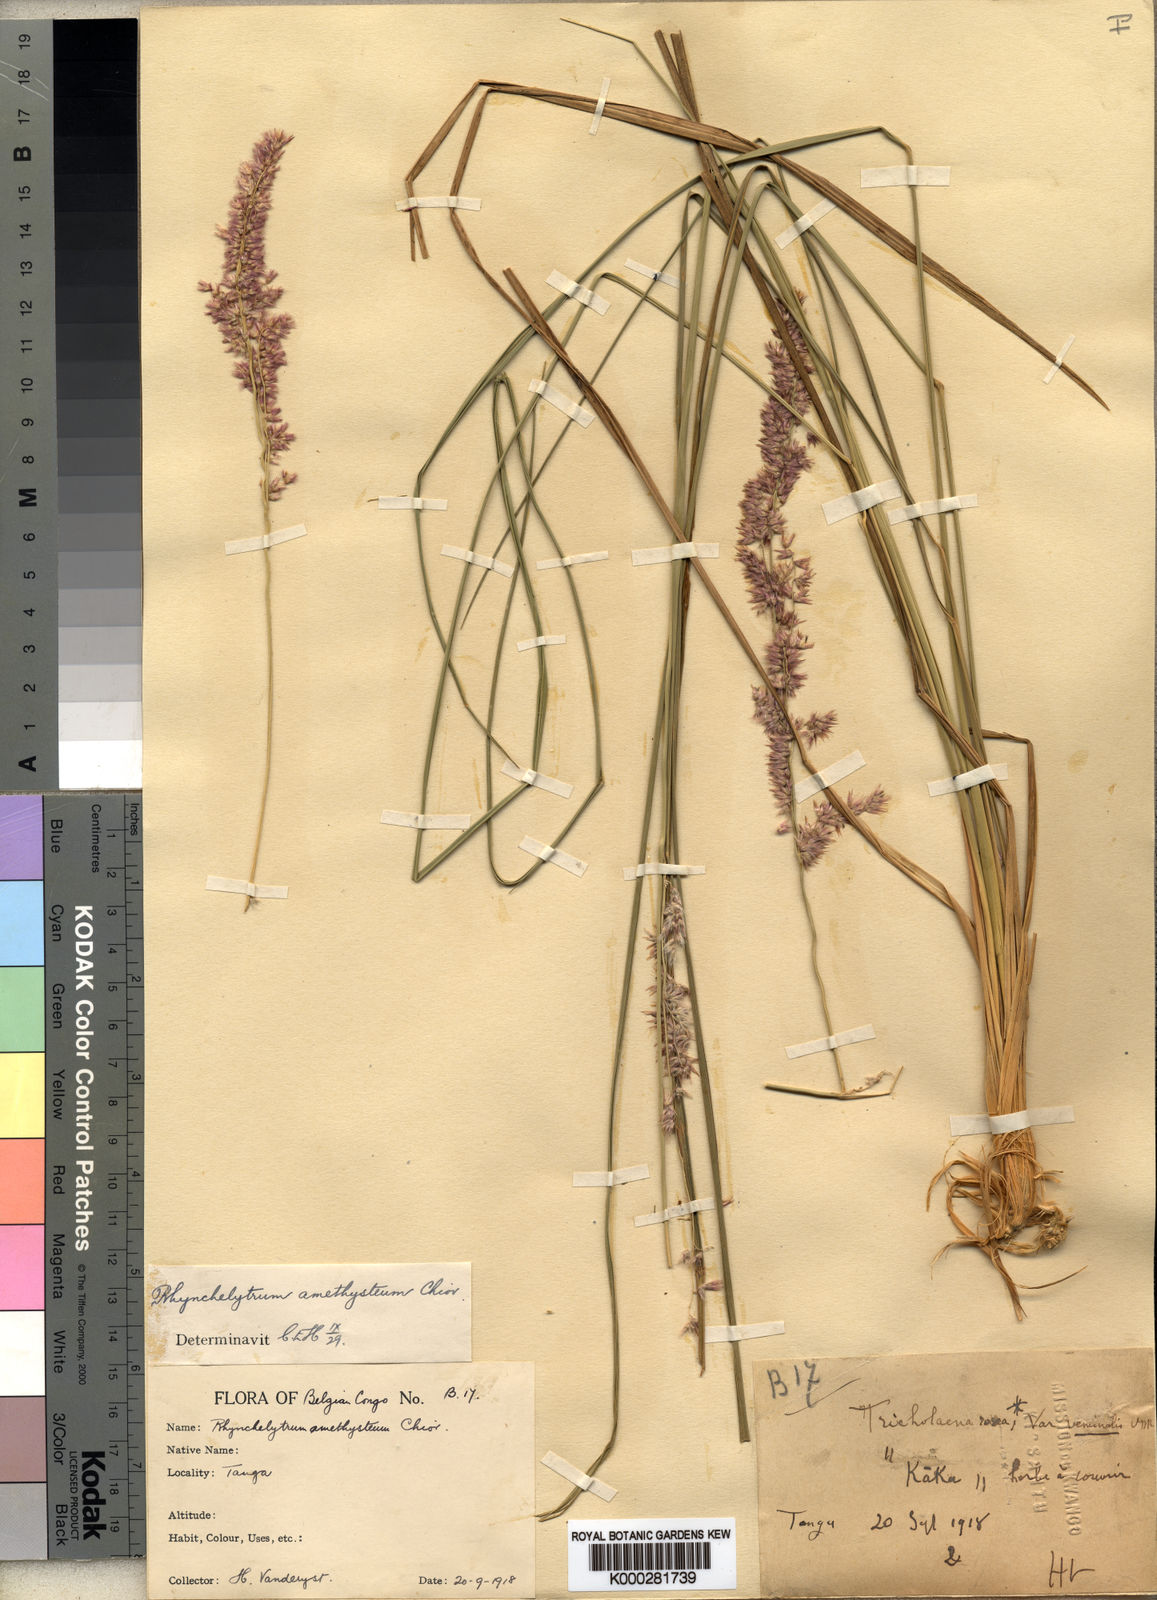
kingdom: Plantae
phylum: Tracheophyta
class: Liliopsida
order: Poales
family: Poaceae
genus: Melinis
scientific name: Melinis amethystea
